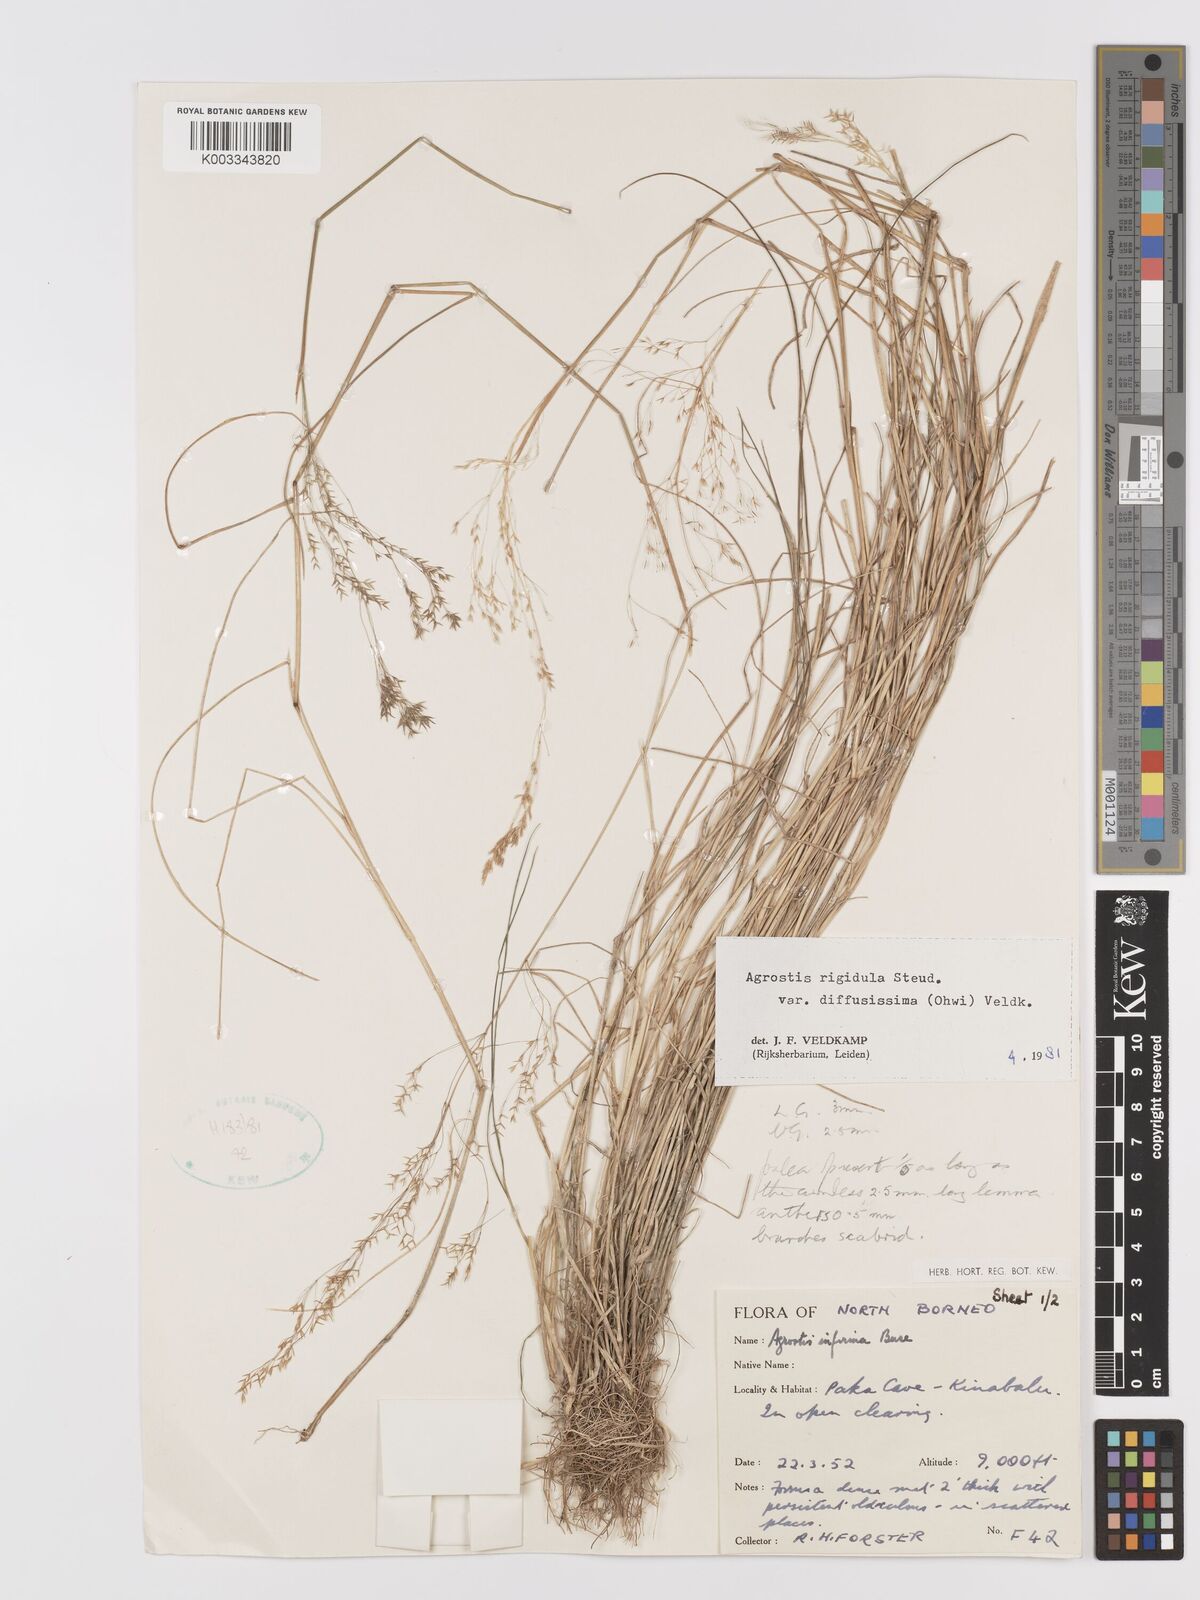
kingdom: Plantae
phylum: Tracheophyta
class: Liliopsida
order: Poales
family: Poaceae
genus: Agrostis
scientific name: Agrostis infirma
